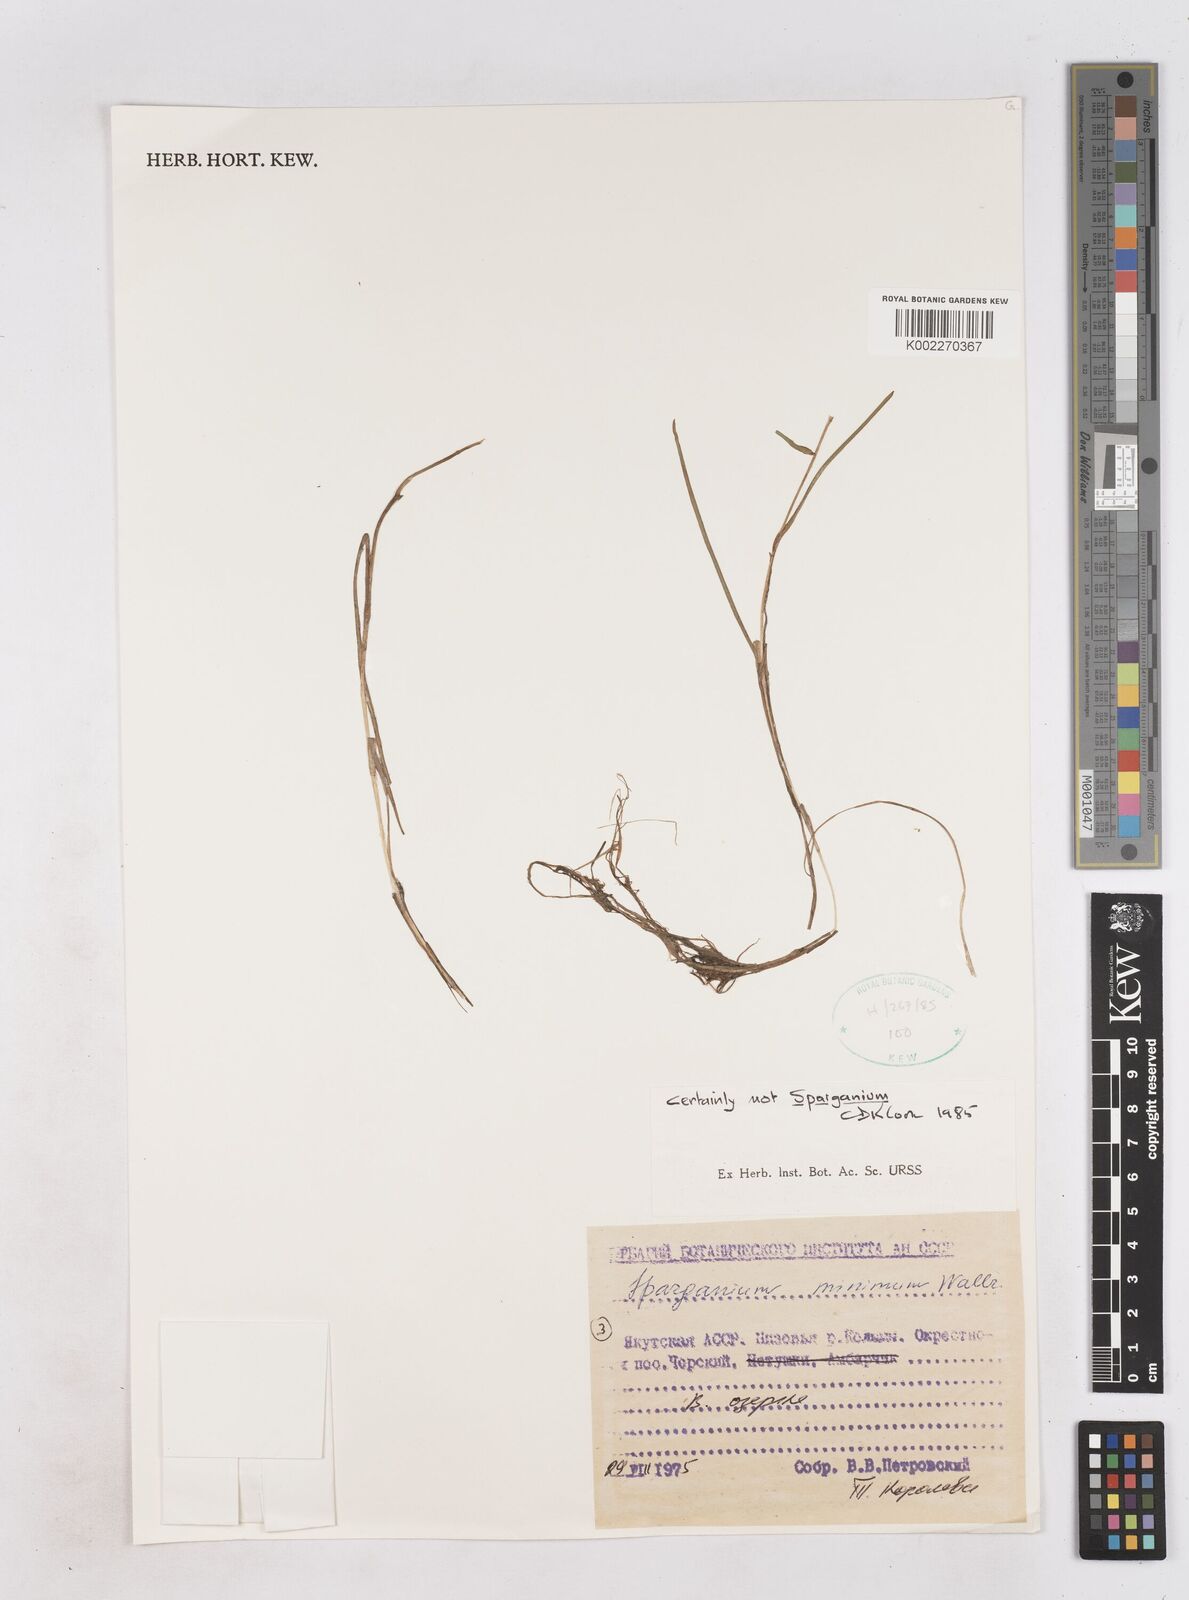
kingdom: Plantae
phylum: Tracheophyta
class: Liliopsida
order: Poales
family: Typhaceae
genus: Sparganium
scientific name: Sparganium natans
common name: Least bur-reed
